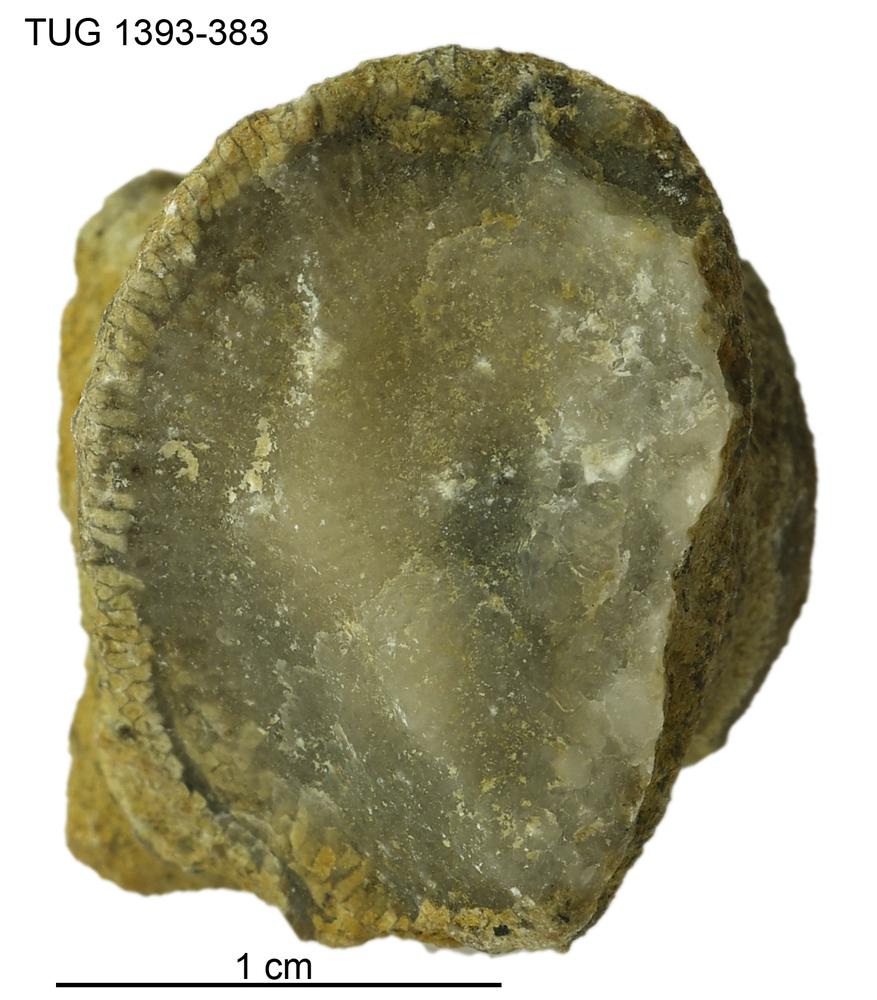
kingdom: Animalia
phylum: Bryozoa
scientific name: Bryozoa
